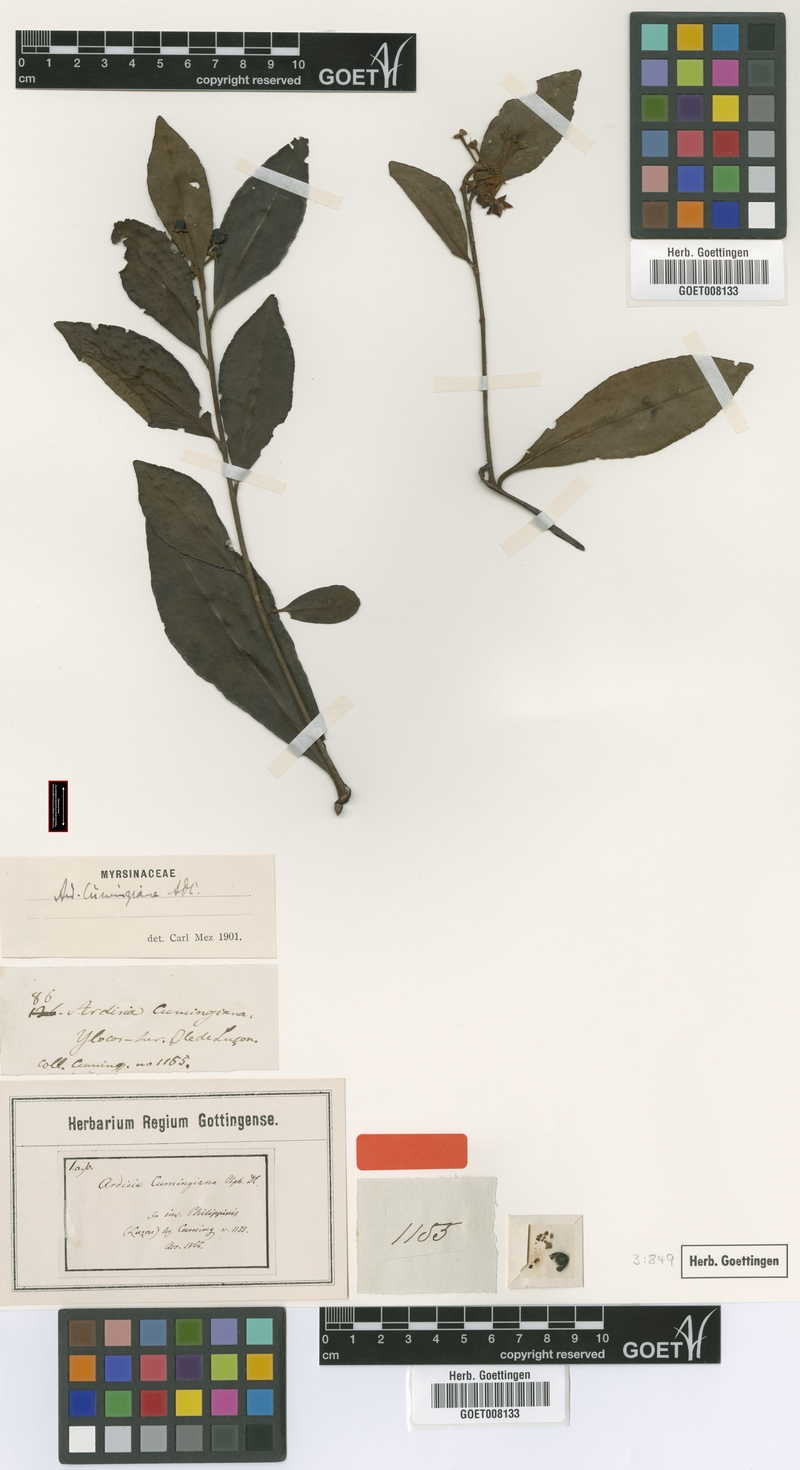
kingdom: Plantae
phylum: Tracheophyta
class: Magnoliopsida
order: Ericales
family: Primulaceae
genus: Ardisia
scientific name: Ardisia cumingiana
